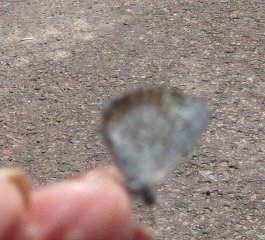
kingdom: Animalia
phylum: Arthropoda
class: Insecta
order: Lepidoptera
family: Lycaenidae
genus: Celastrina
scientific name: Celastrina lucia
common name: Northern Spring Azure
